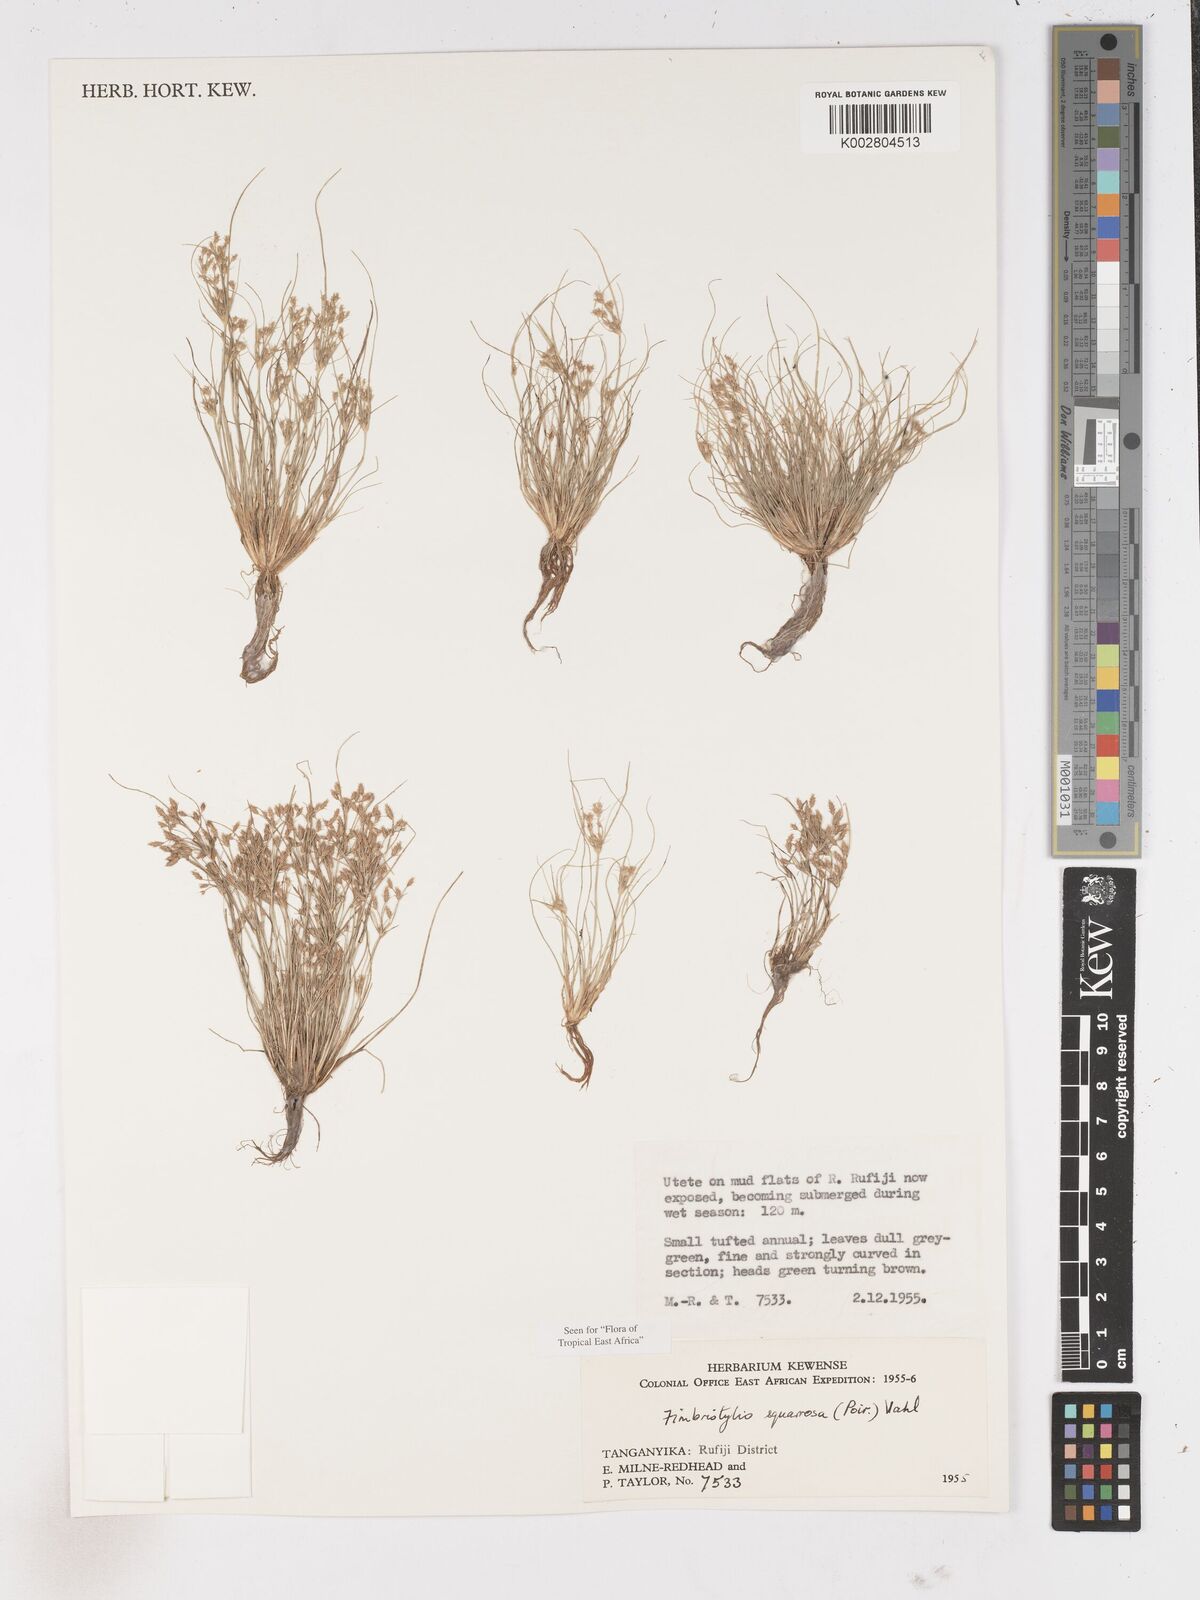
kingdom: Plantae
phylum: Tracheophyta
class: Liliopsida
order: Poales
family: Cyperaceae
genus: Fimbristylis
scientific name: Fimbristylis squarrosa
